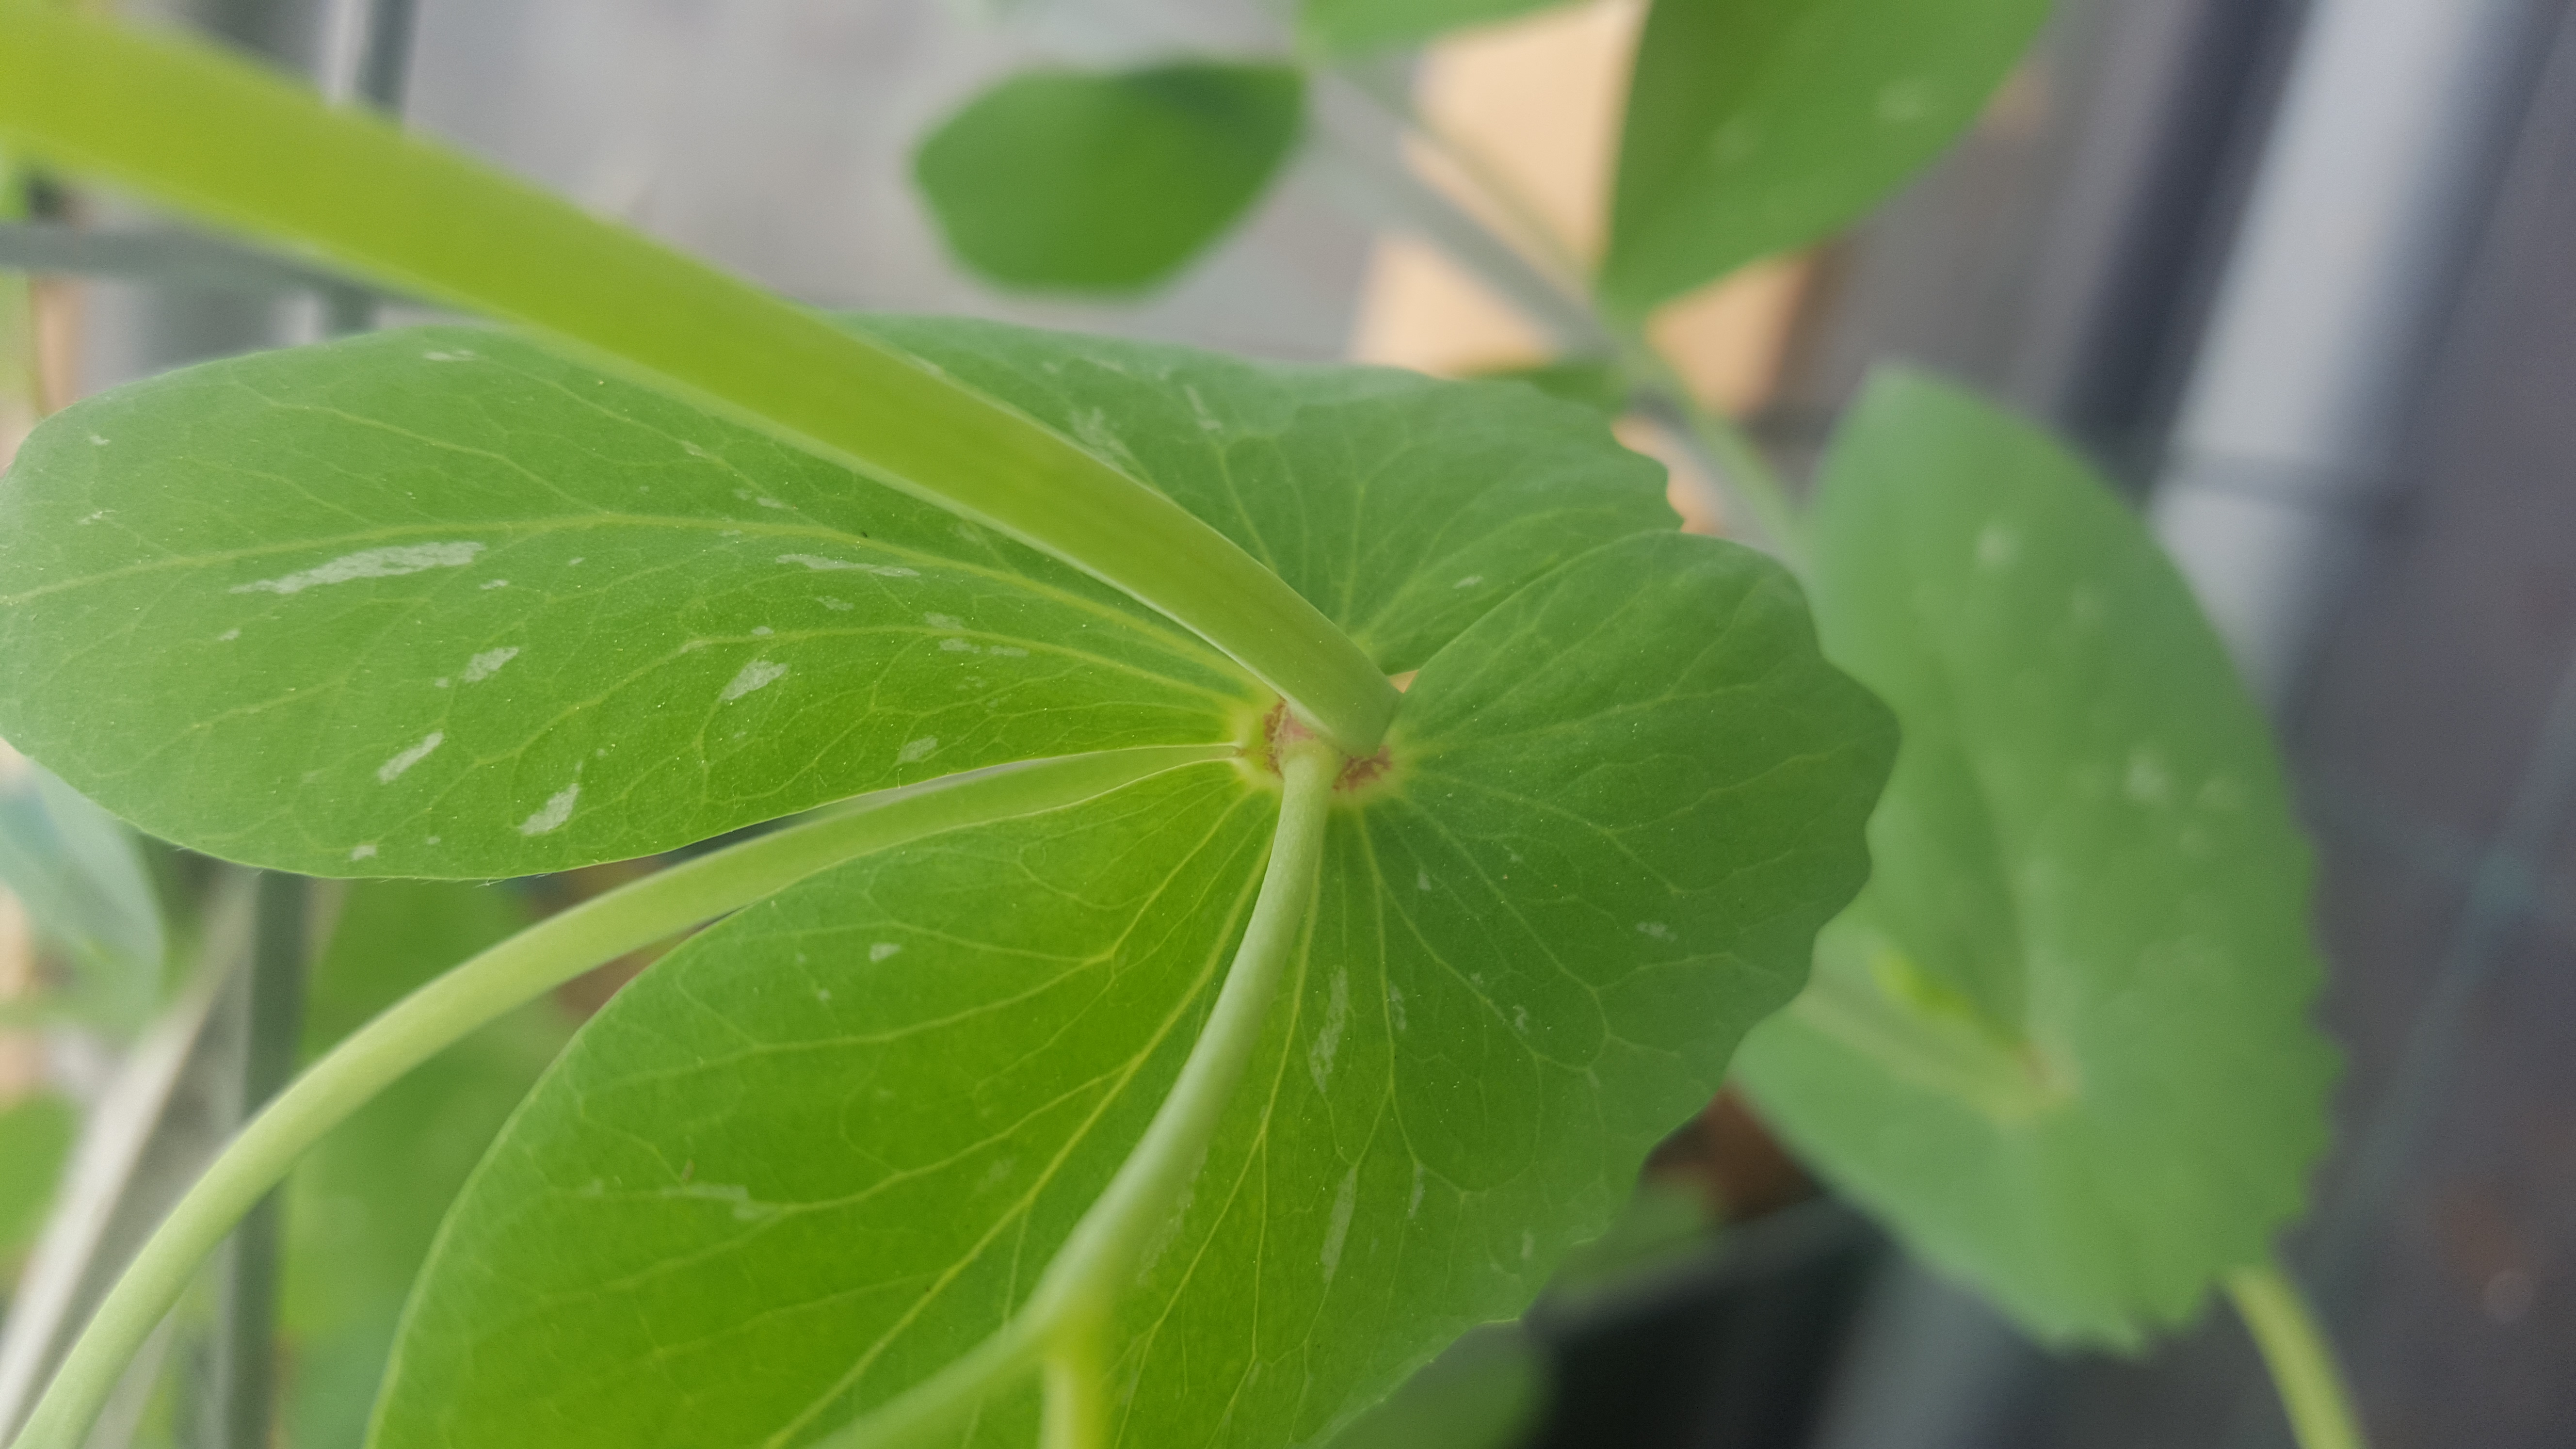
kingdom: Plantae
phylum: Tracheophyta
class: Magnoliopsida
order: Fabales
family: Fabaceae
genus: Lathyrus
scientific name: Lathyrus oleraceus
